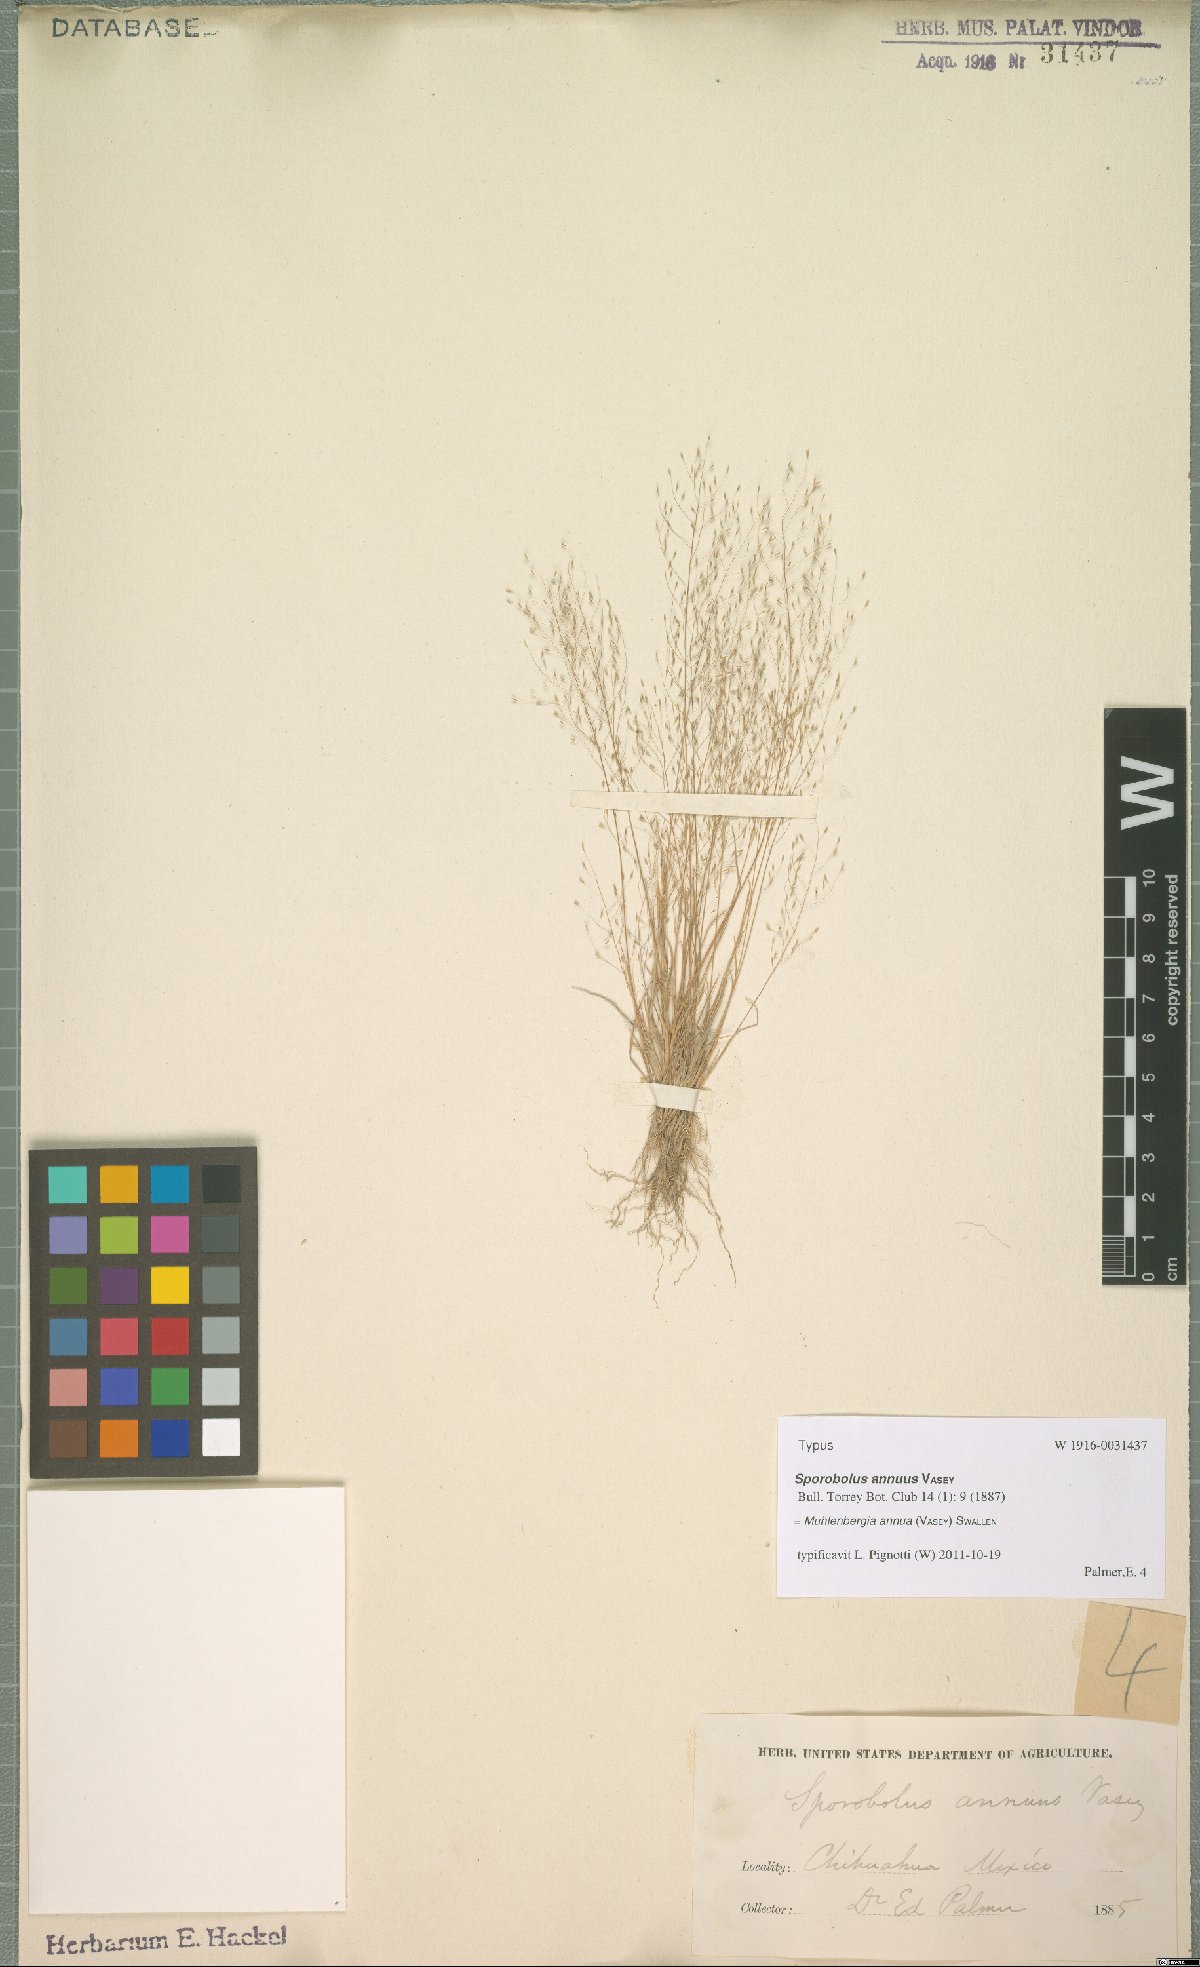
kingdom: Plantae
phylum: Tracheophyta
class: Liliopsida
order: Poales
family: Poaceae
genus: Muhlenbergia
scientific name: Muhlenbergia annua
